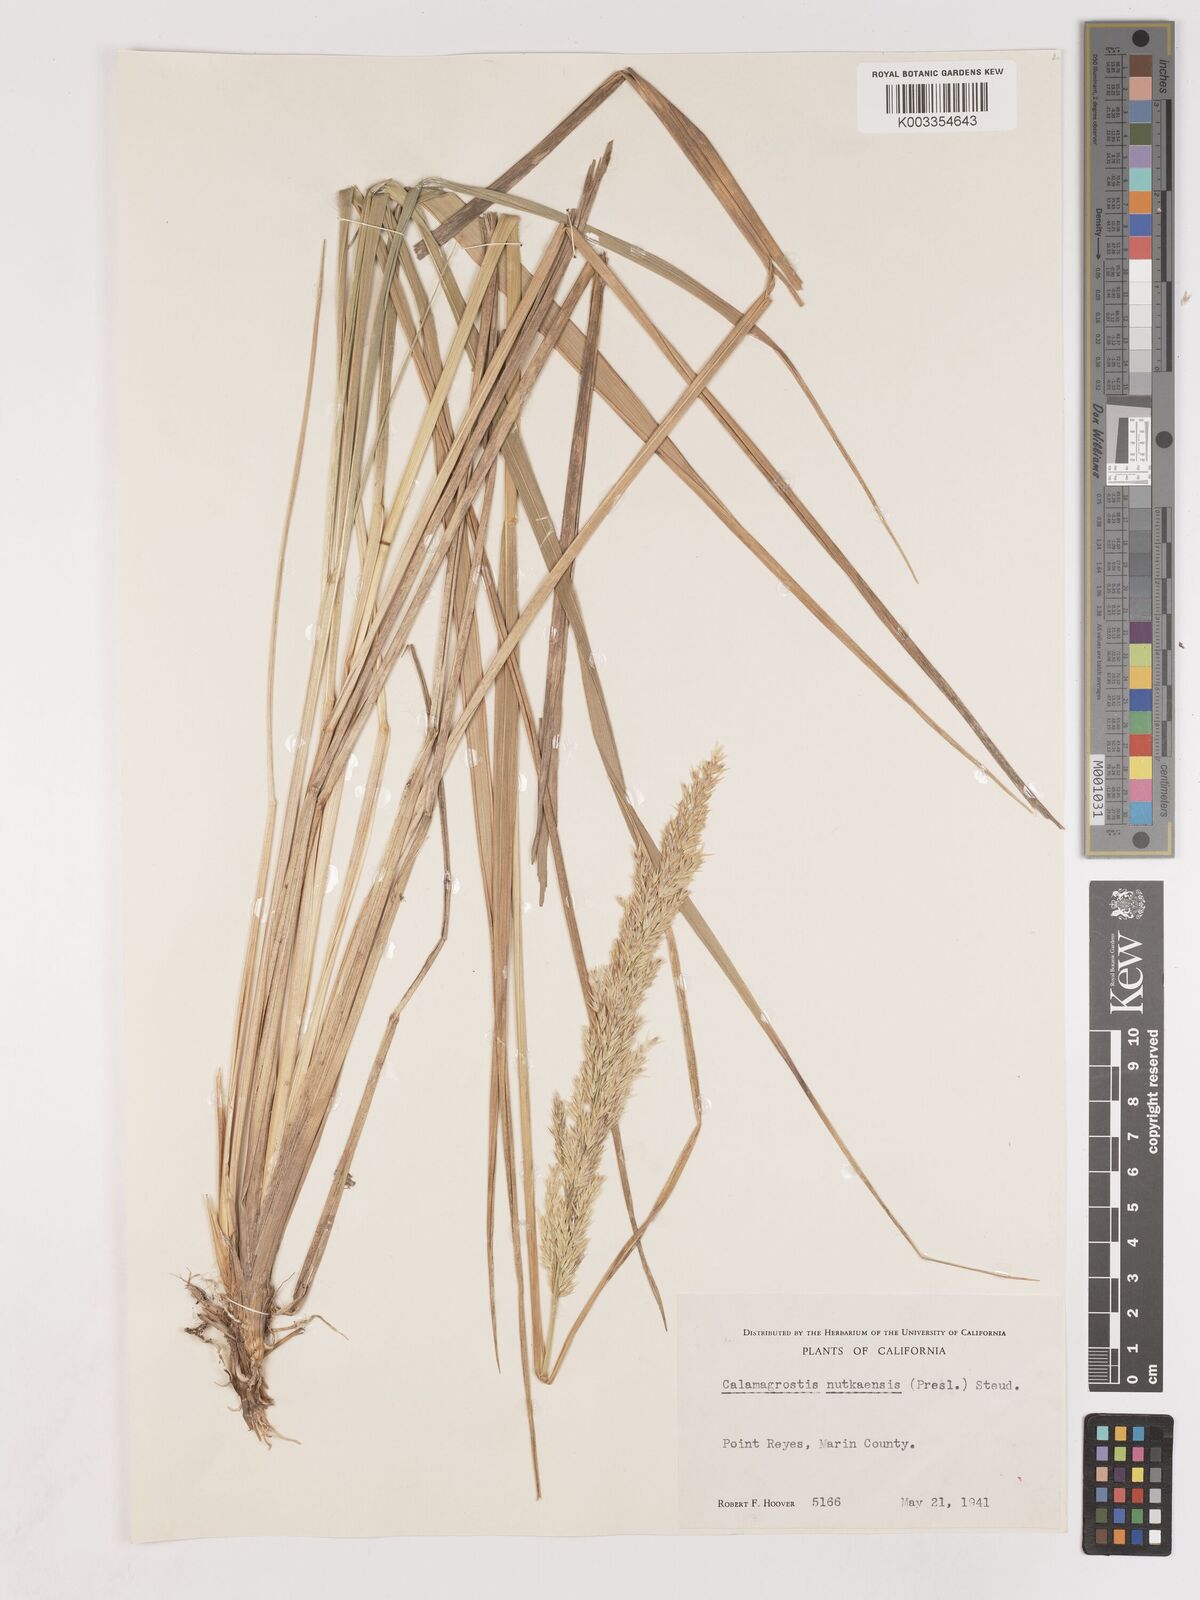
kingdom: Plantae
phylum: Tracheophyta
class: Liliopsida
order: Poales
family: Poaceae
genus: Calamagrostis
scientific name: Calamagrostis nutkaensis
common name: Pacific reed grass
